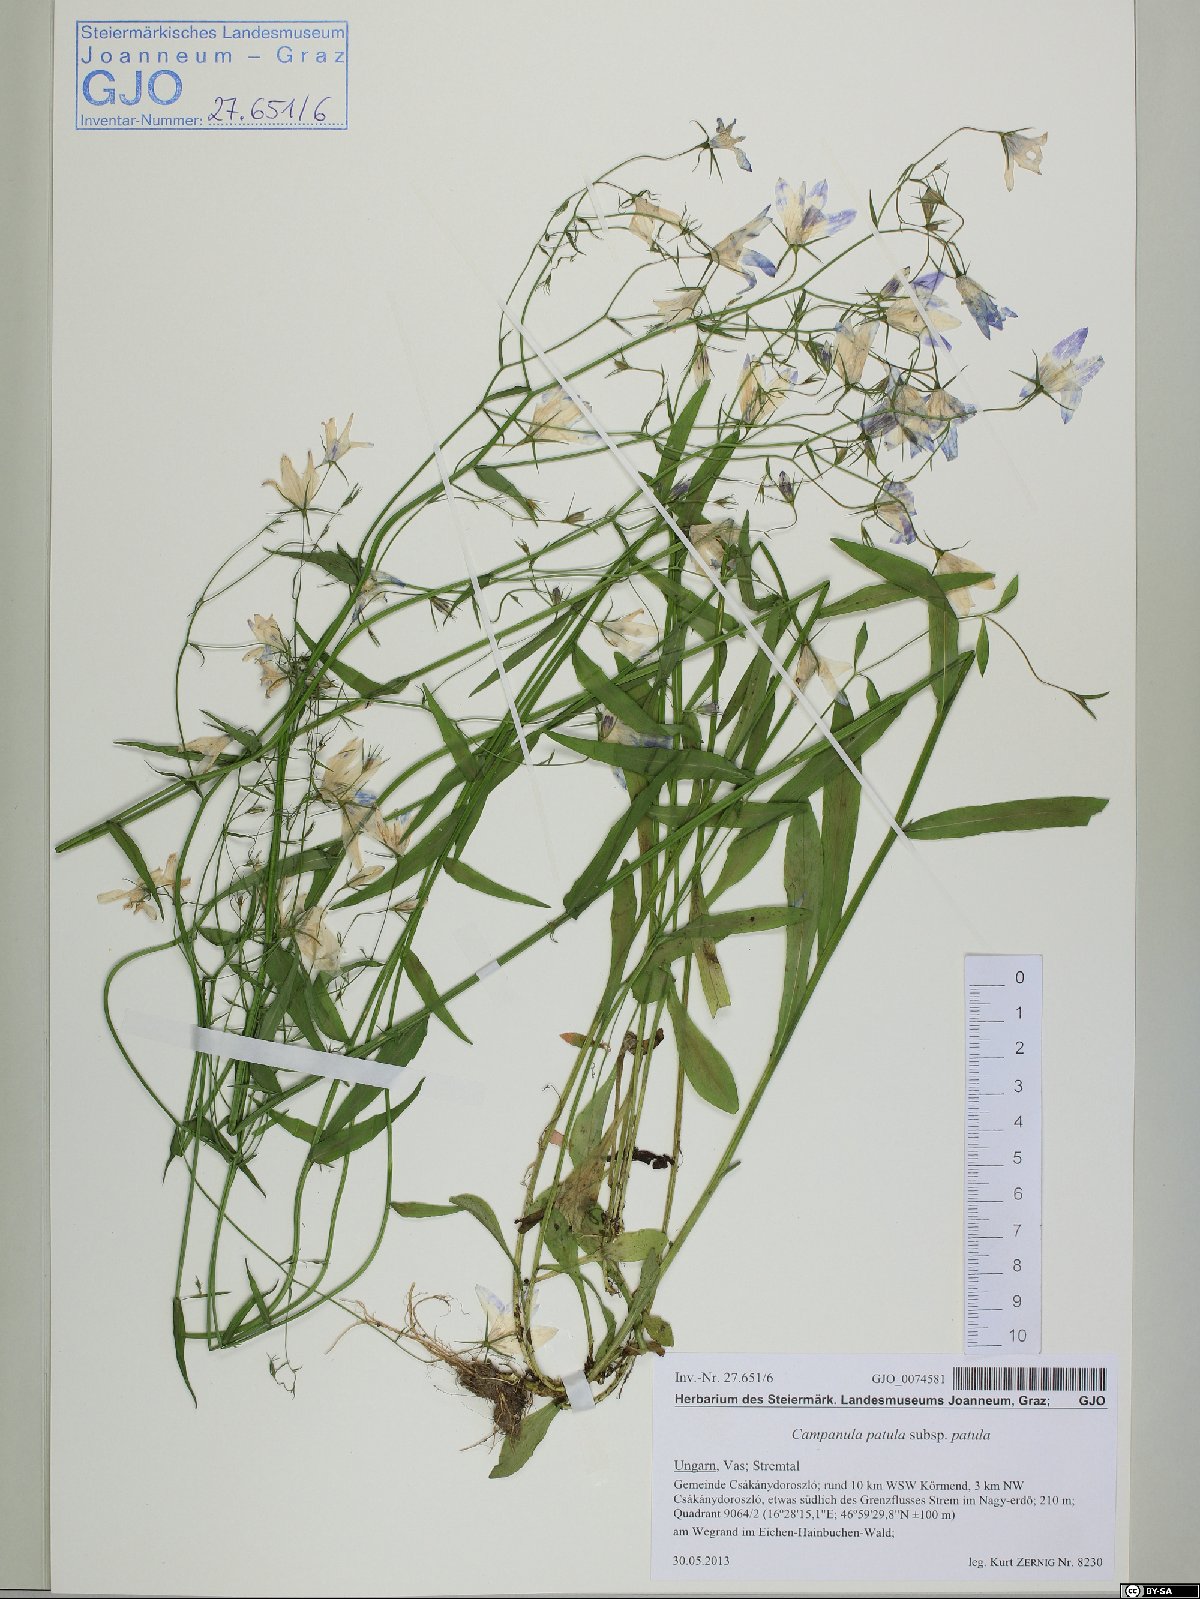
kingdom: Plantae
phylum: Tracheophyta
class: Magnoliopsida
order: Asterales
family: Campanulaceae
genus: Campanula
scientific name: Campanula patula
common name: Spreading bellflower
